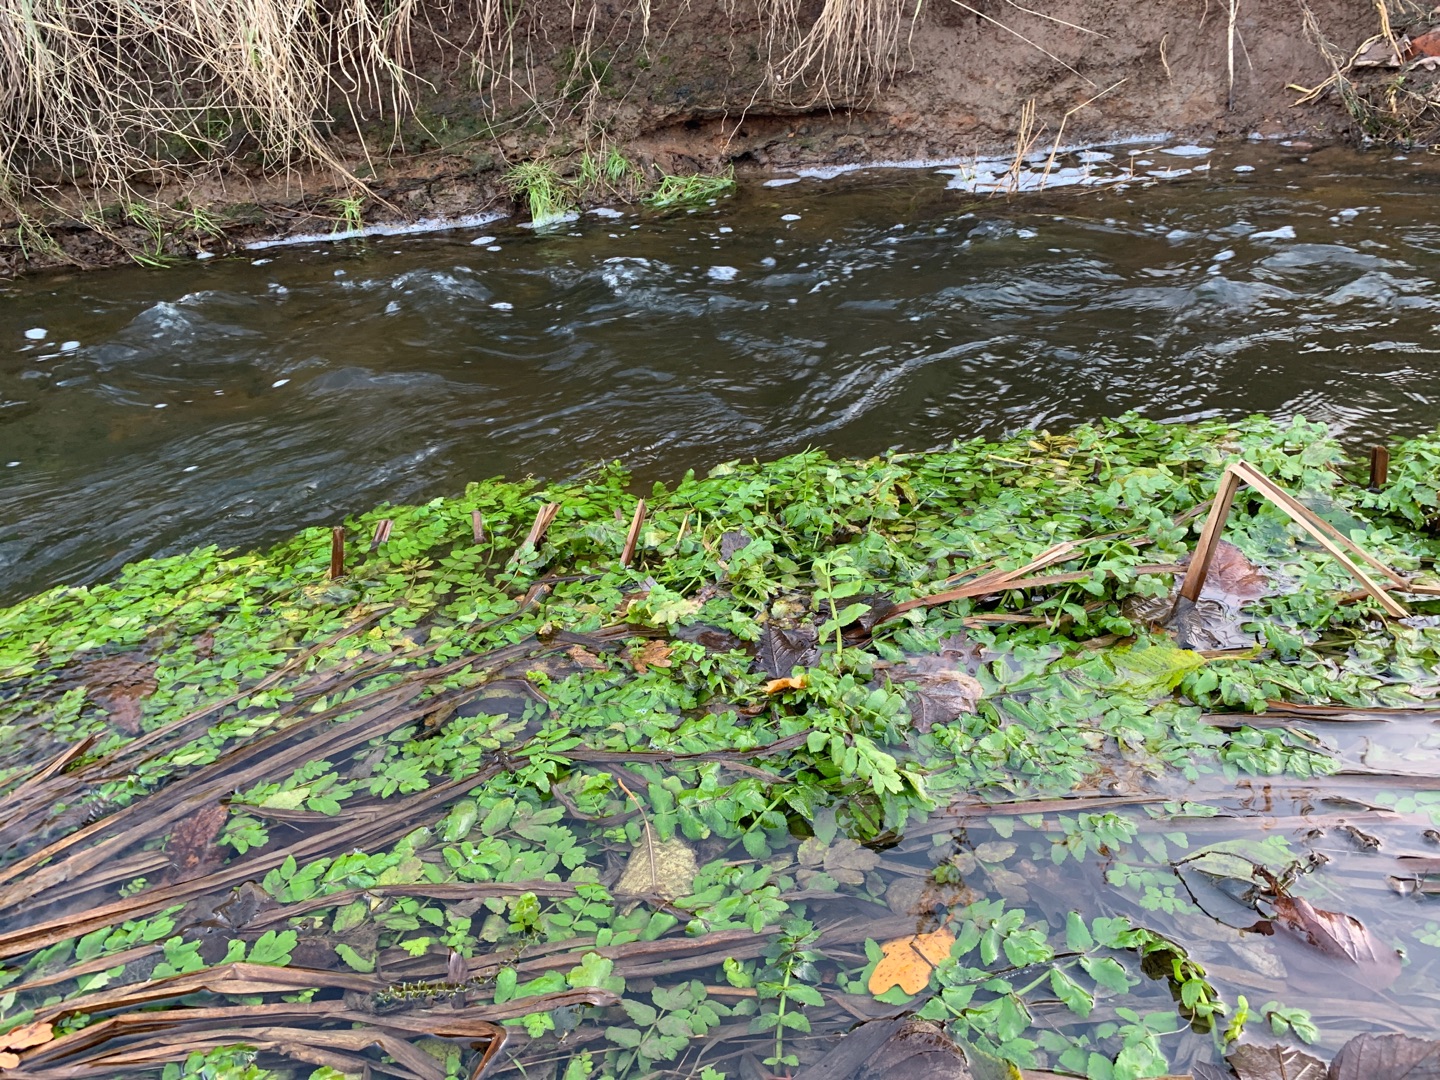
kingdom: Plantae
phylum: Tracheophyta
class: Magnoliopsida
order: Apiales
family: Apiaceae
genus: Berula
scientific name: Berula erecta
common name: Sideskærm
